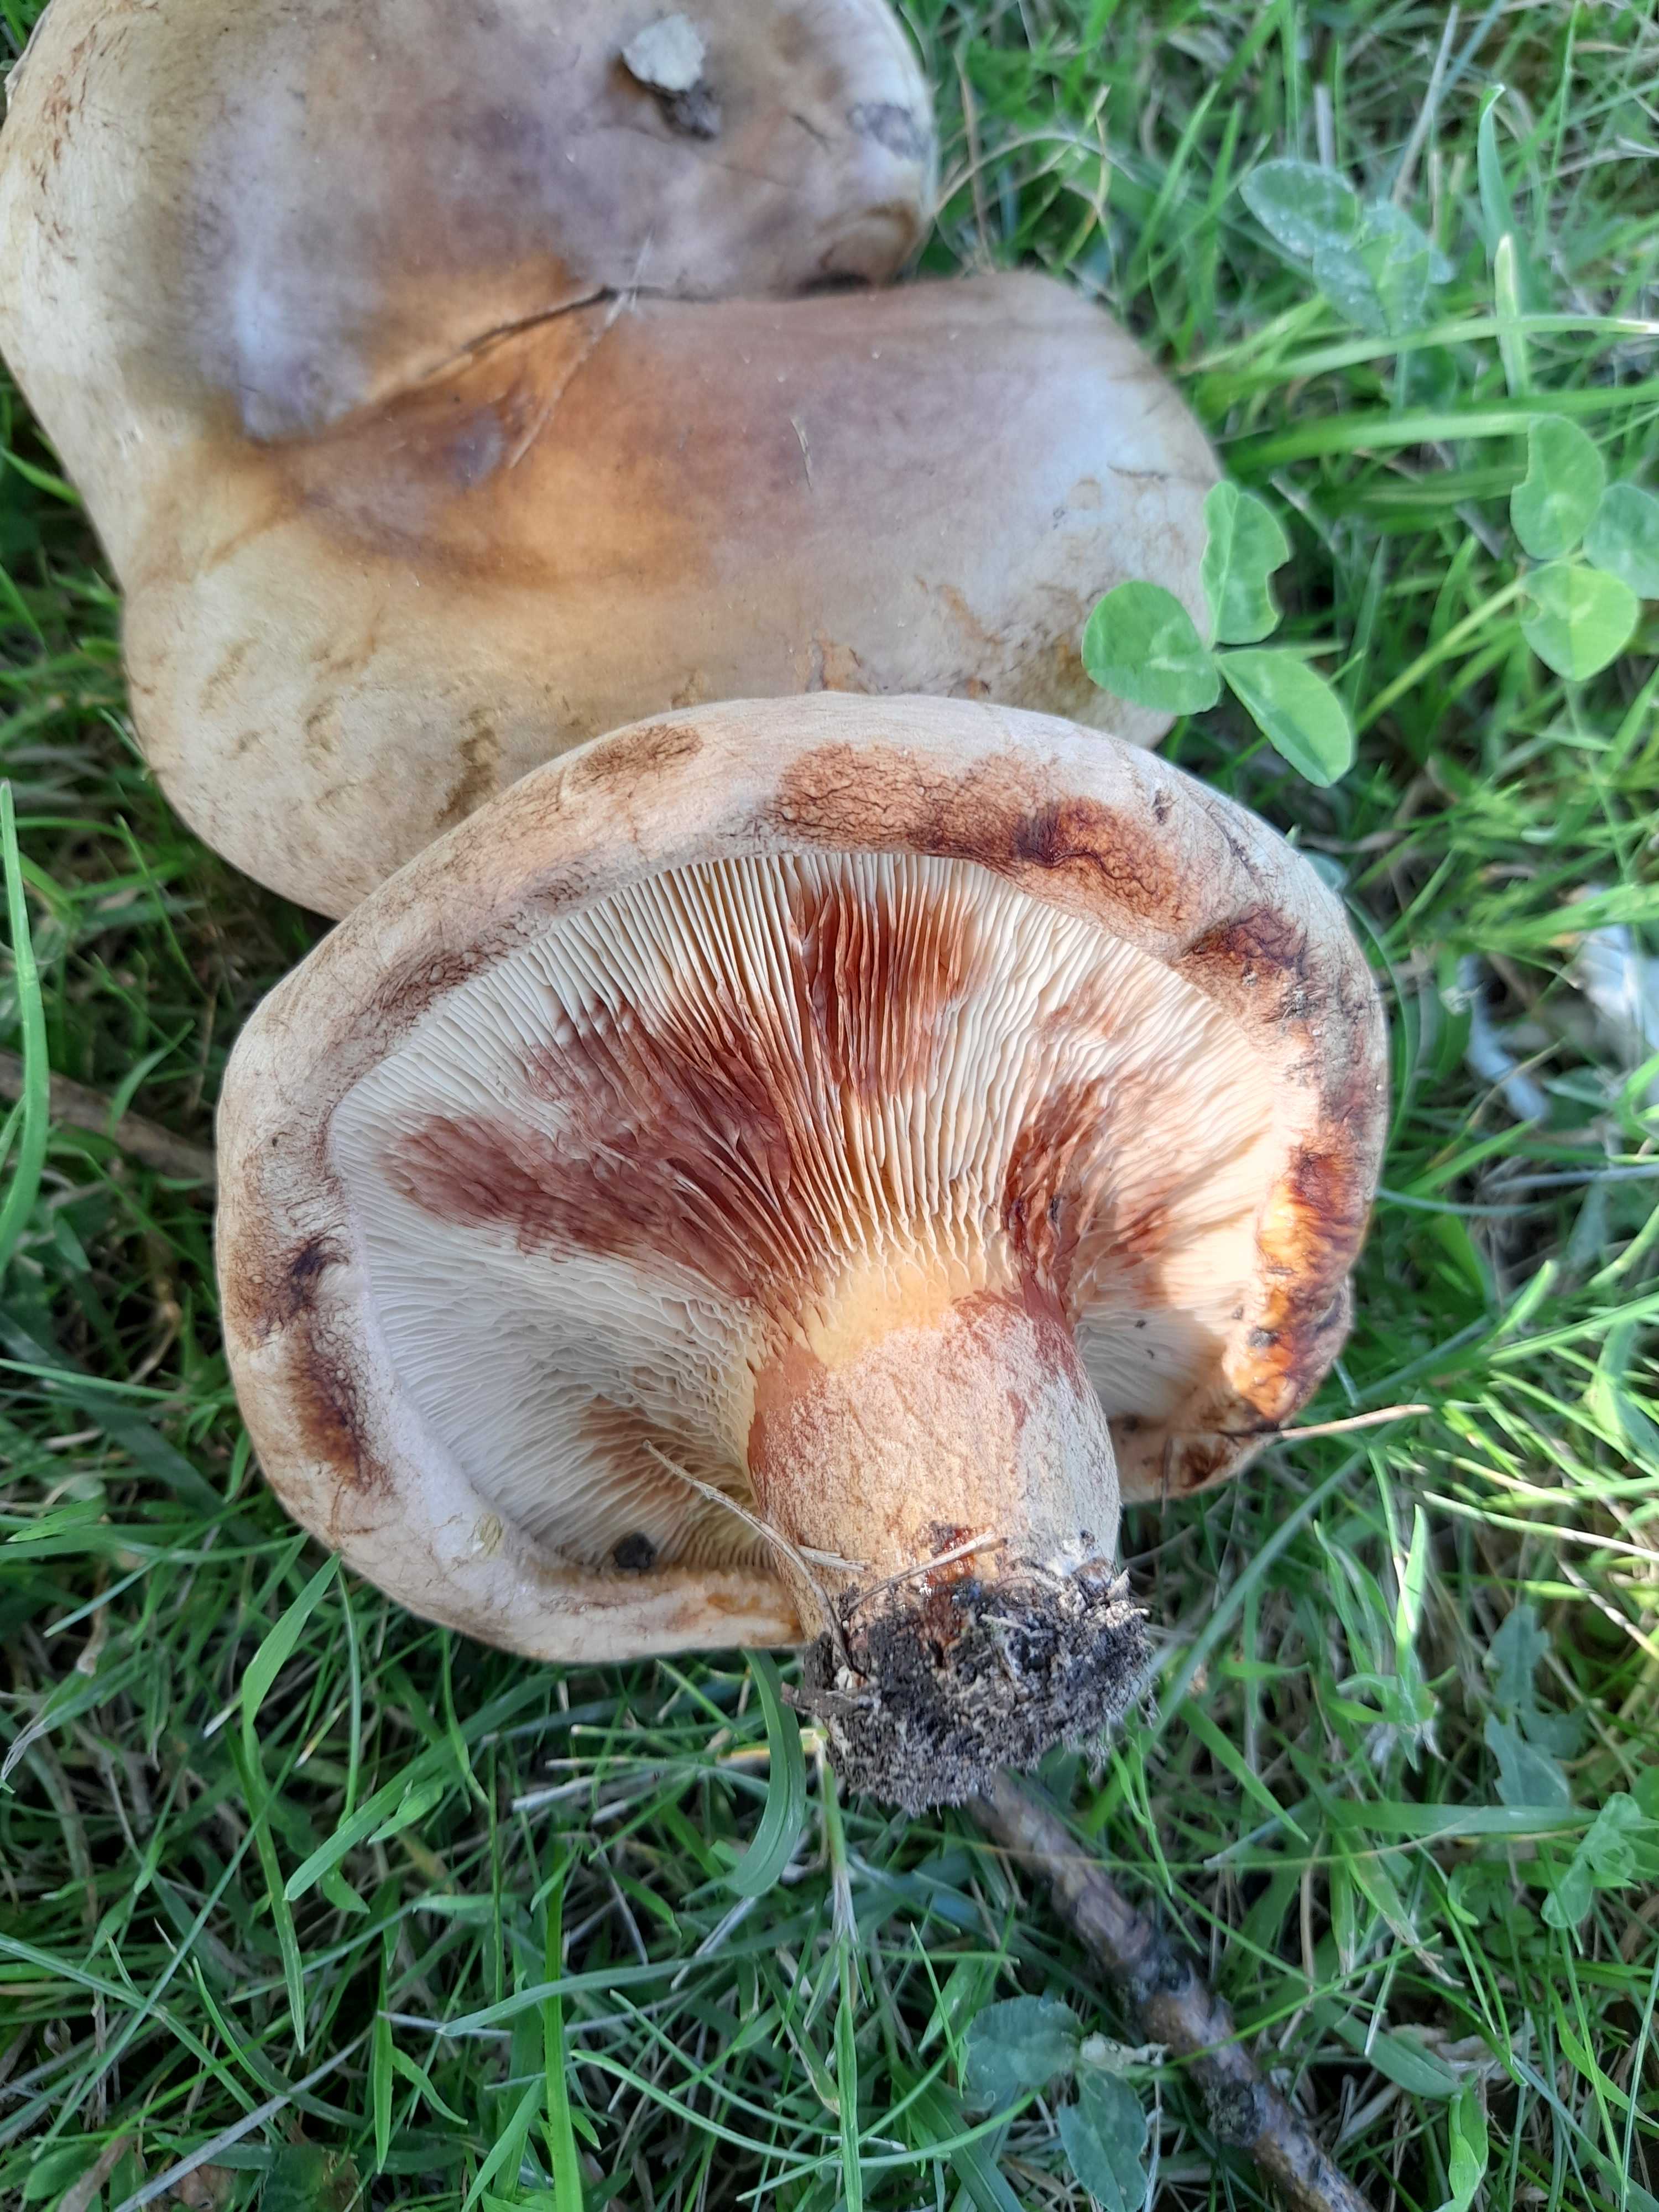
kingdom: Fungi
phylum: Basidiomycota
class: Agaricomycetes
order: Boletales
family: Paxillaceae
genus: Paxillus
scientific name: Paxillus obscurisporus
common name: mahognisporet netbladhat
